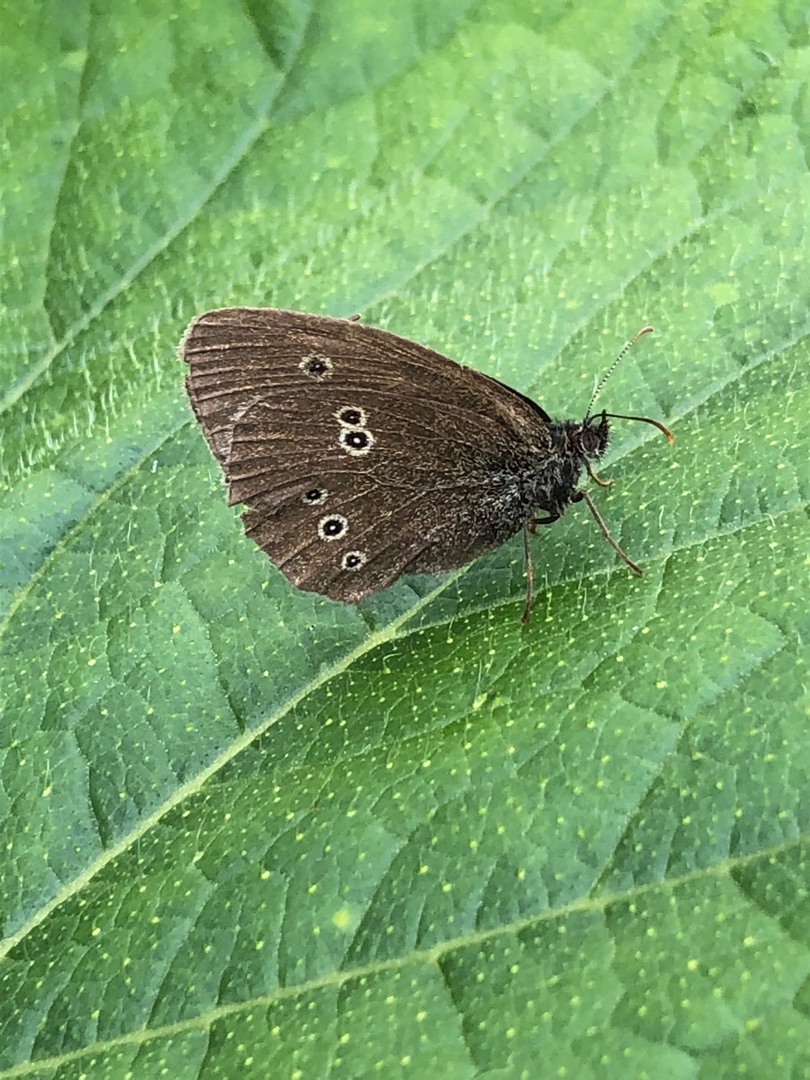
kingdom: Animalia
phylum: Arthropoda
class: Insecta
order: Lepidoptera
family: Nymphalidae
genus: Aphantopus
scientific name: Aphantopus hyperantus
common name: Engrandøje
